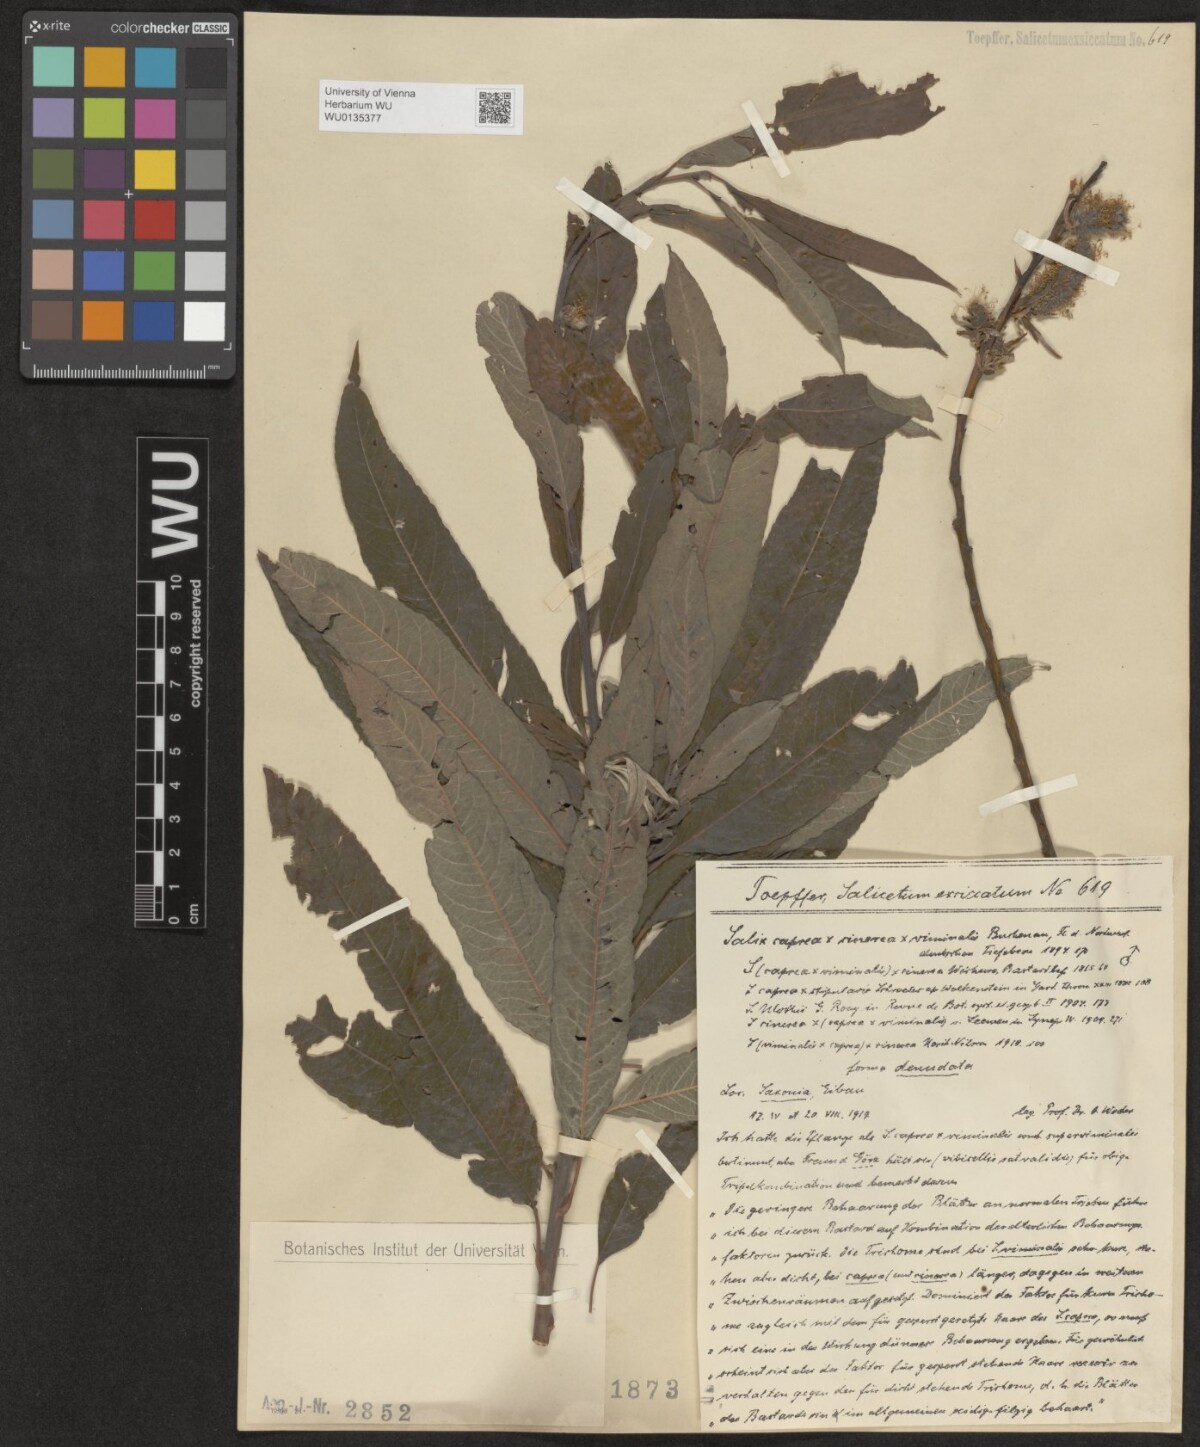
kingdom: Plantae
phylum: Tracheophyta
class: Magnoliopsida
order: Malpighiales
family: Salicaceae
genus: Salix
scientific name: Salix
